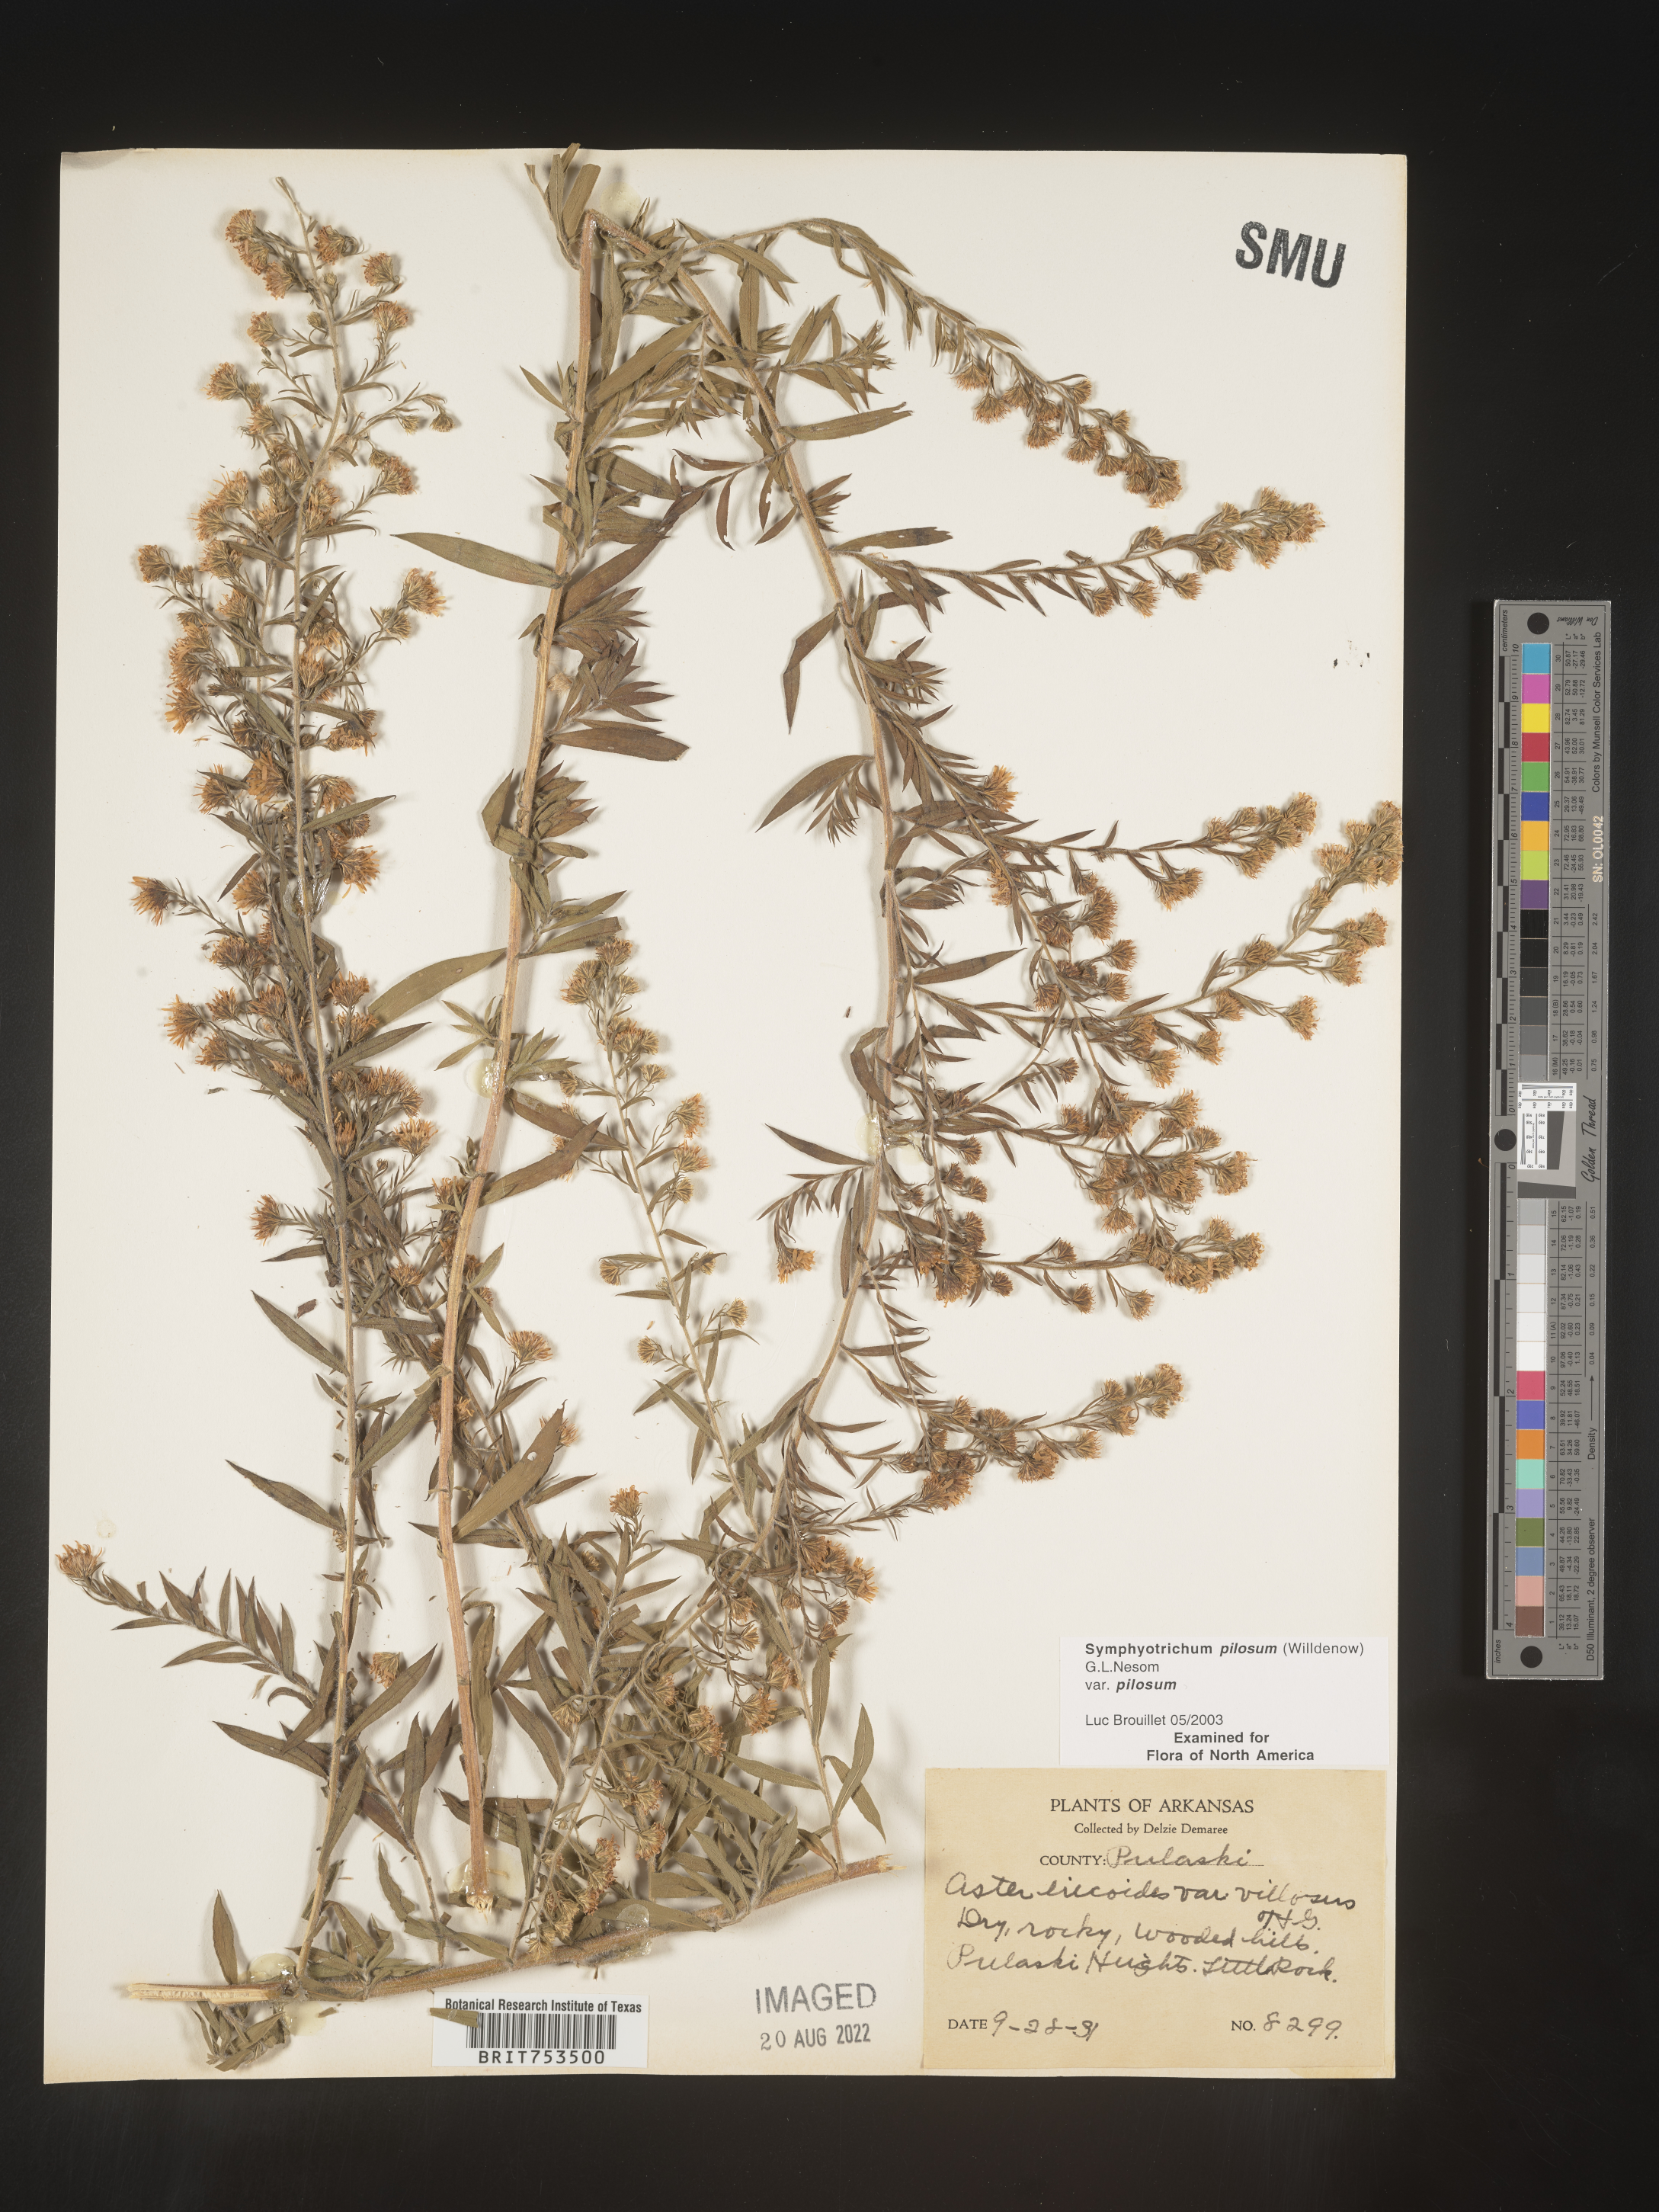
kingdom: Plantae
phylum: Tracheophyta
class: Magnoliopsida
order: Asterales
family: Asteraceae
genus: Symphyotrichum
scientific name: Symphyotrichum pilosum
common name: Awl aster
